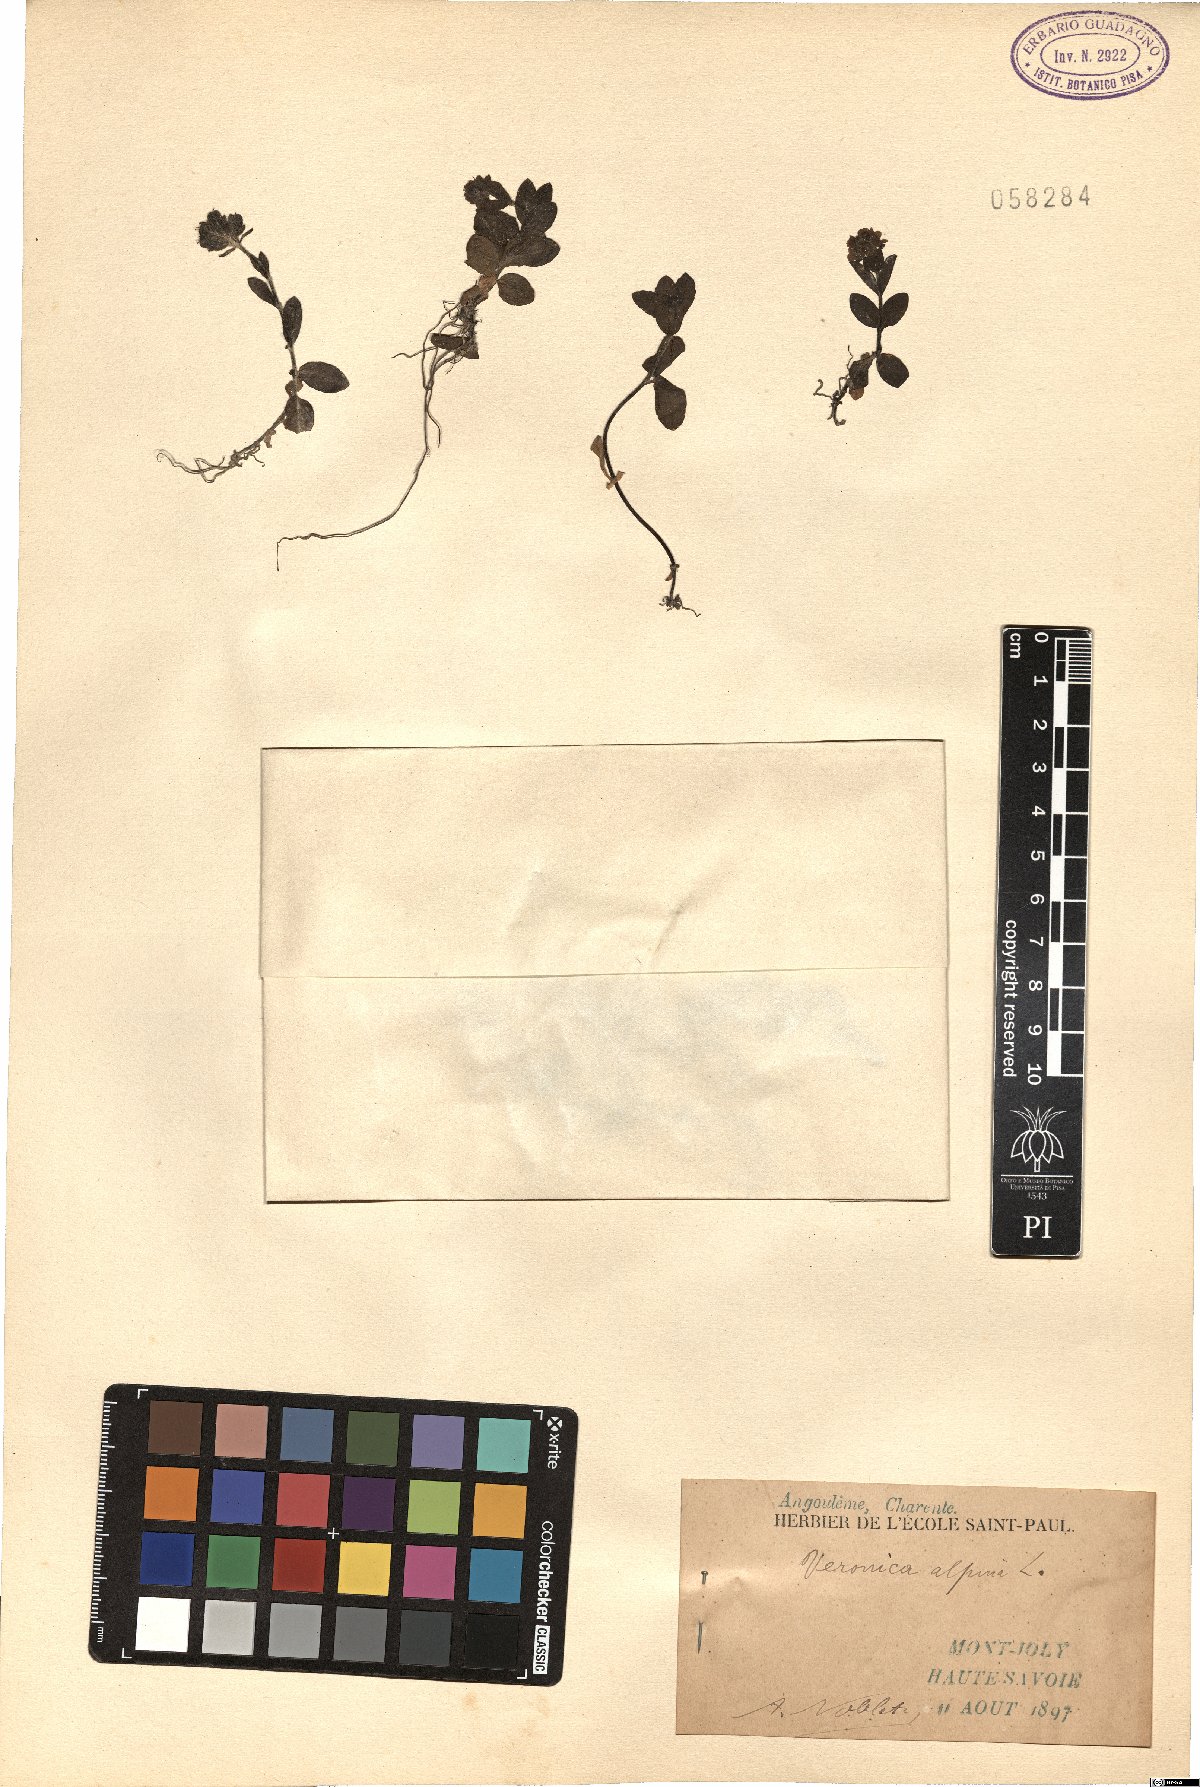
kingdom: Plantae
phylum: Tracheophyta
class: Magnoliopsida
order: Lamiales
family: Plantaginaceae
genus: Veronica
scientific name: Veronica alpina
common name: Alpine speedwell
